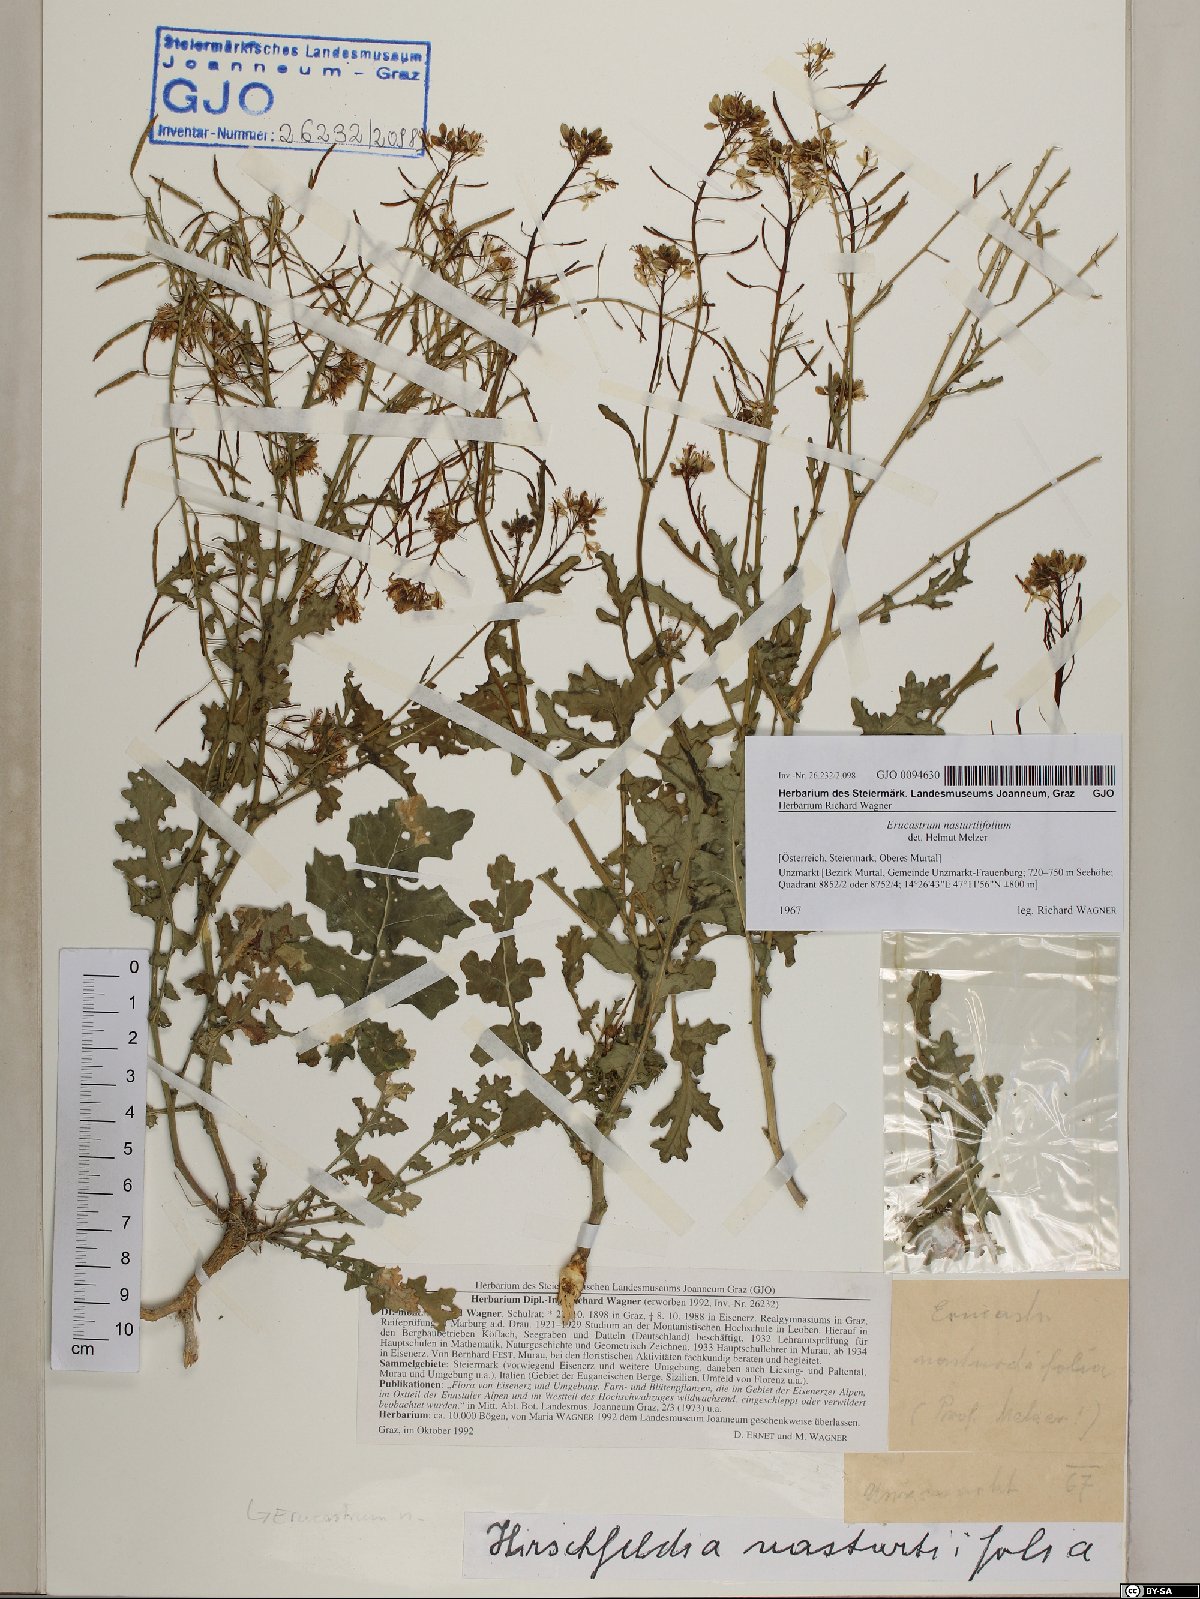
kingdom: Plantae
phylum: Tracheophyta
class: Magnoliopsida
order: Brassicales
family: Brassicaceae
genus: Erucastrum
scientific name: Erucastrum nasturtiifolium
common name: Watercress-leaf rocket
